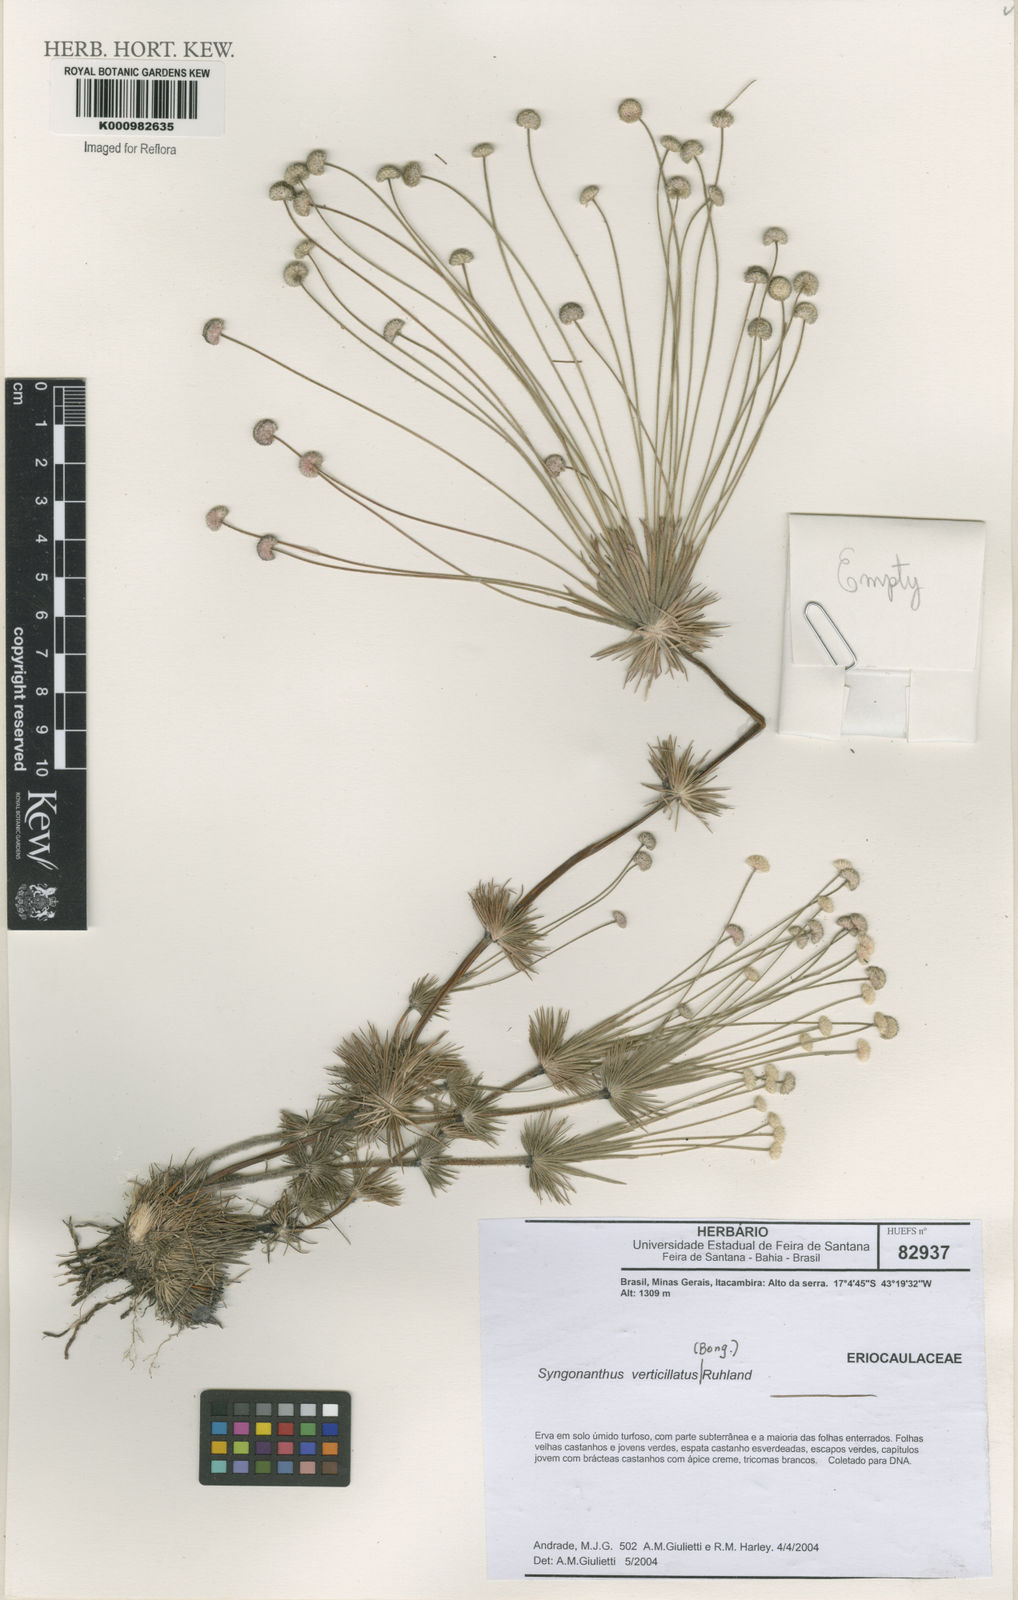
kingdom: Plantae
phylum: Tracheophyta
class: Liliopsida
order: Poales
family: Eriocaulaceae
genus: Syngonanthus
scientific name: Syngonanthus verticillatus
